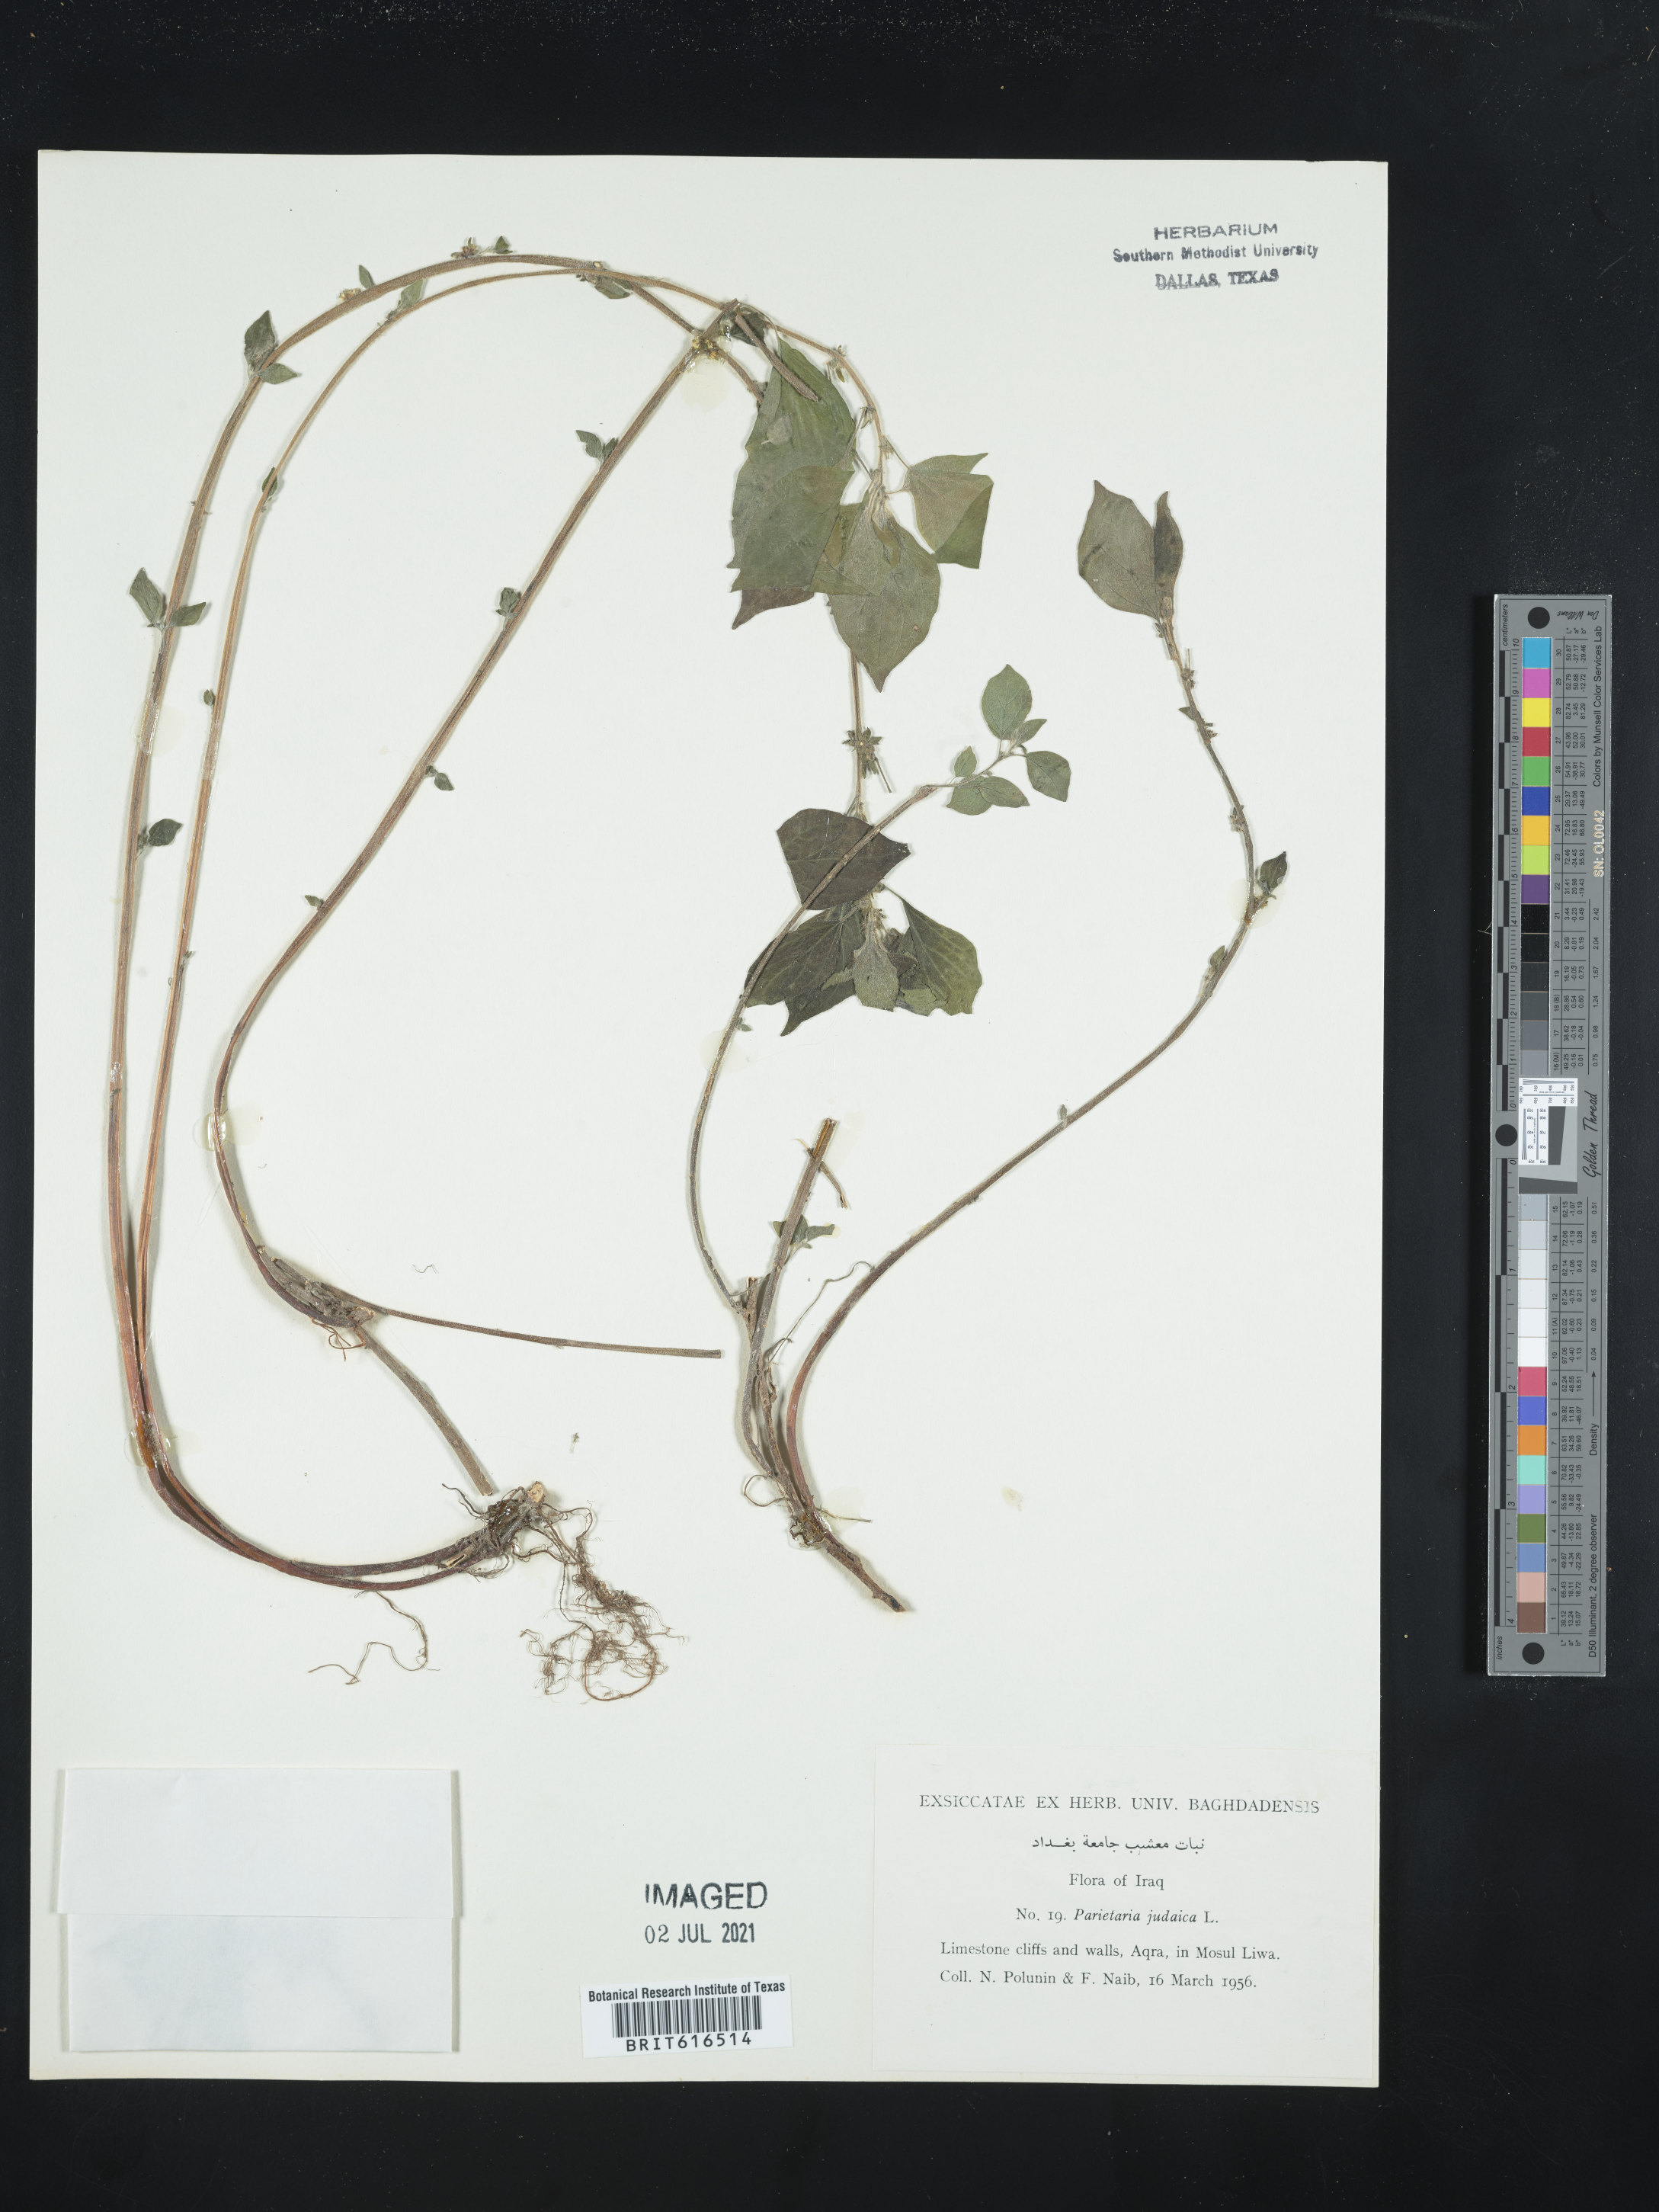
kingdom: Plantae
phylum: Tracheophyta
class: Magnoliopsida
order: Rosales
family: Urticaceae
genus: Parietaria
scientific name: Parietaria judaica
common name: Pellitory-of-the-wall
